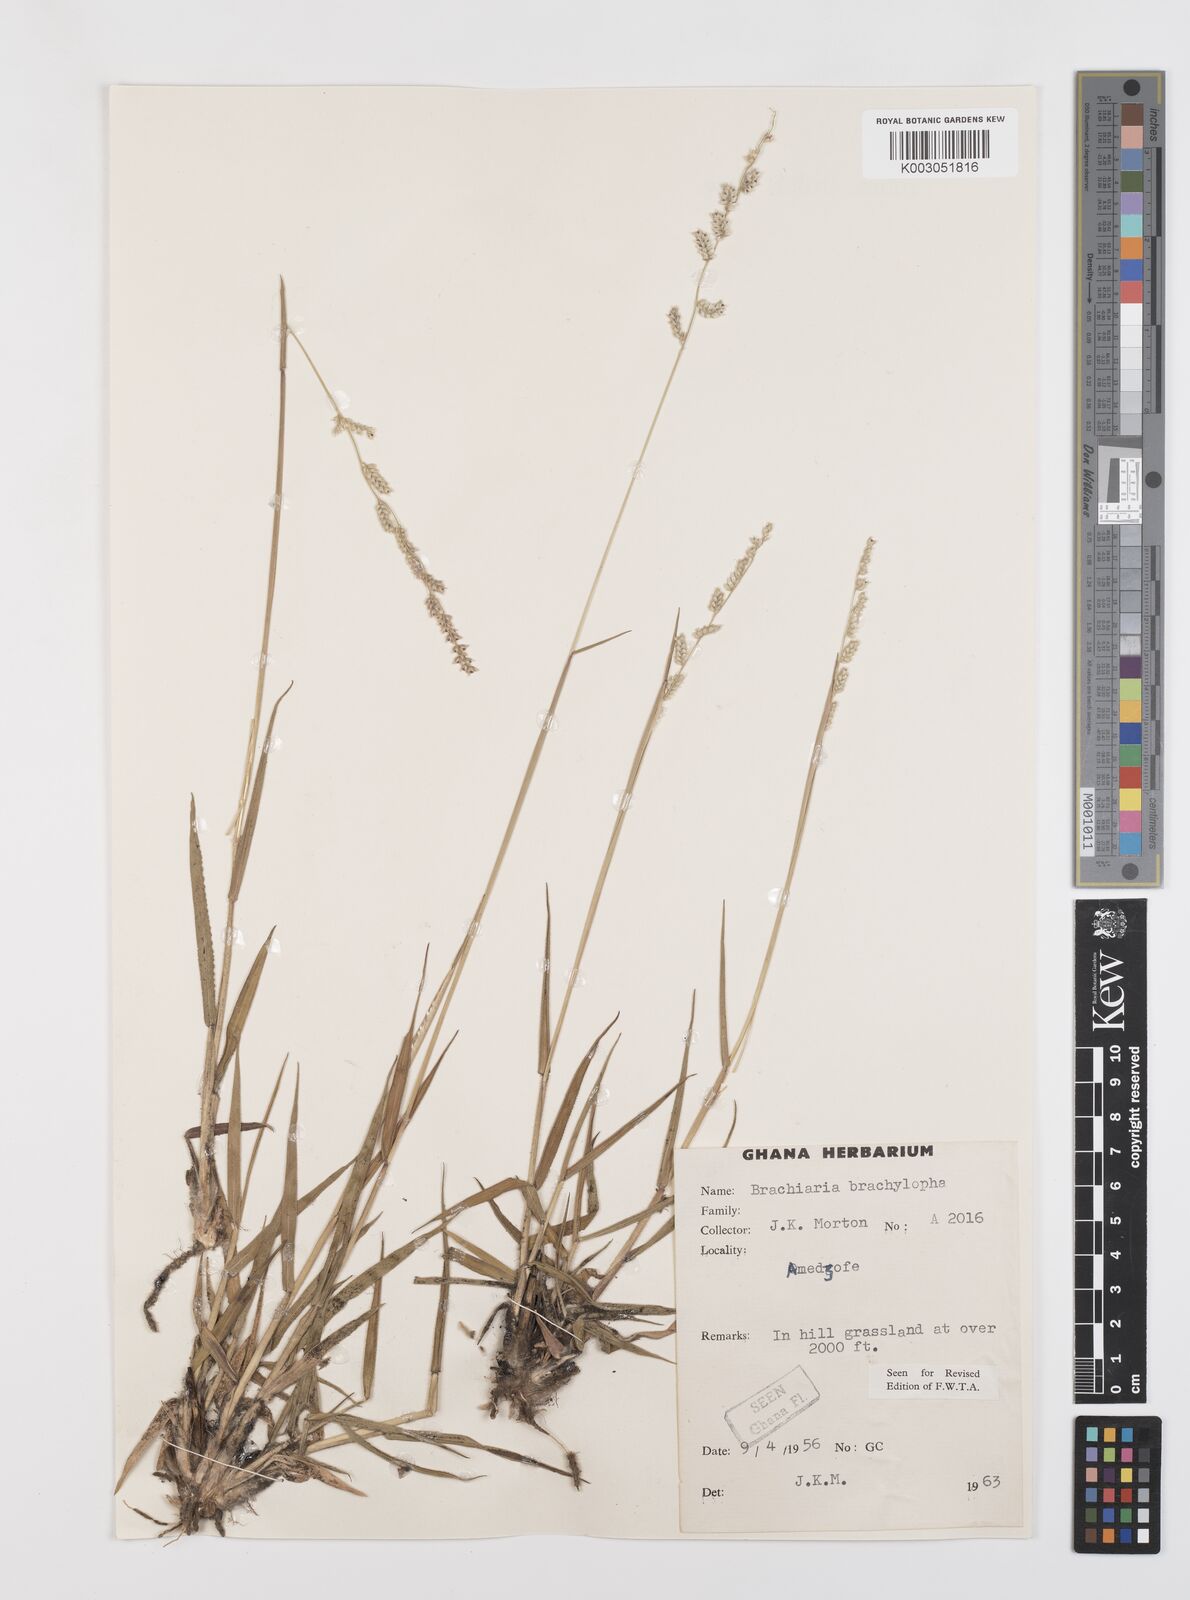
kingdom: Plantae
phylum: Tracheophyta
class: Liliopsida
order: Poales
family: Poaceae
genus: Urochloa
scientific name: Urochloa serrata
